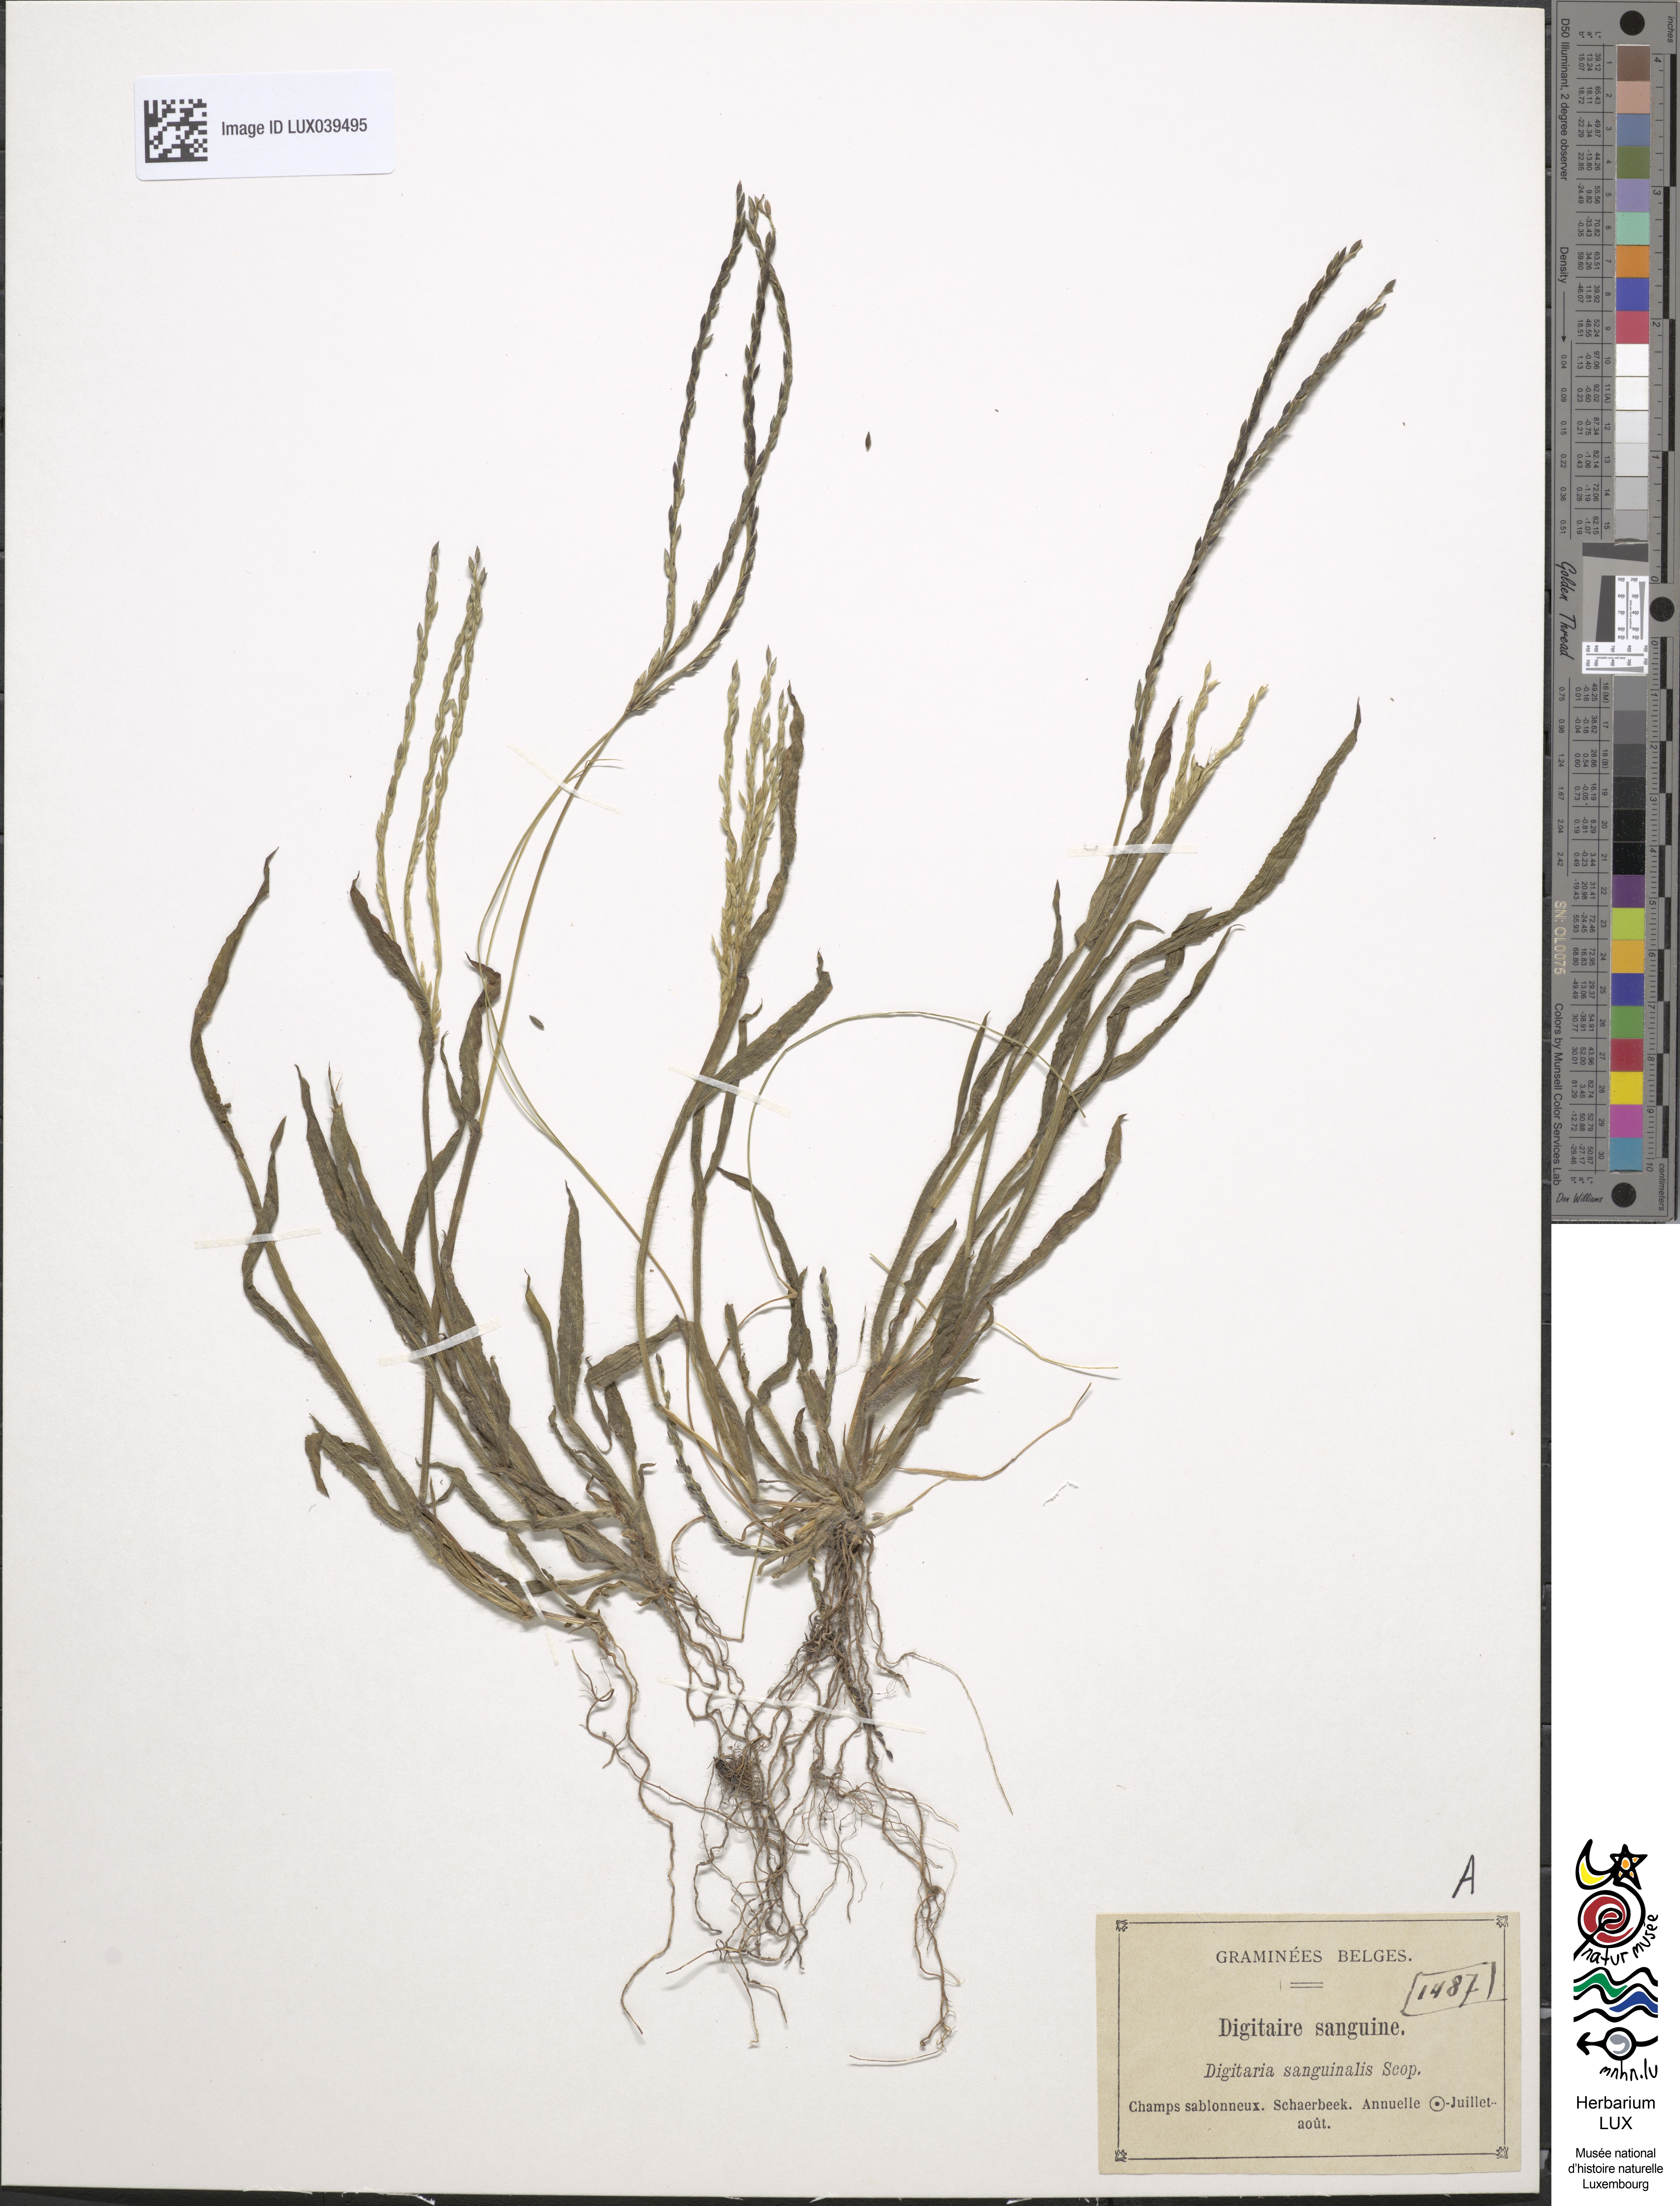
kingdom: Plantae
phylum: Tracheophyta
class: Liliopsida
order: Poales
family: Poaceae
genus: Digitaria
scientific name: Digitaria sanguinalis
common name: Hairy crabgrass
